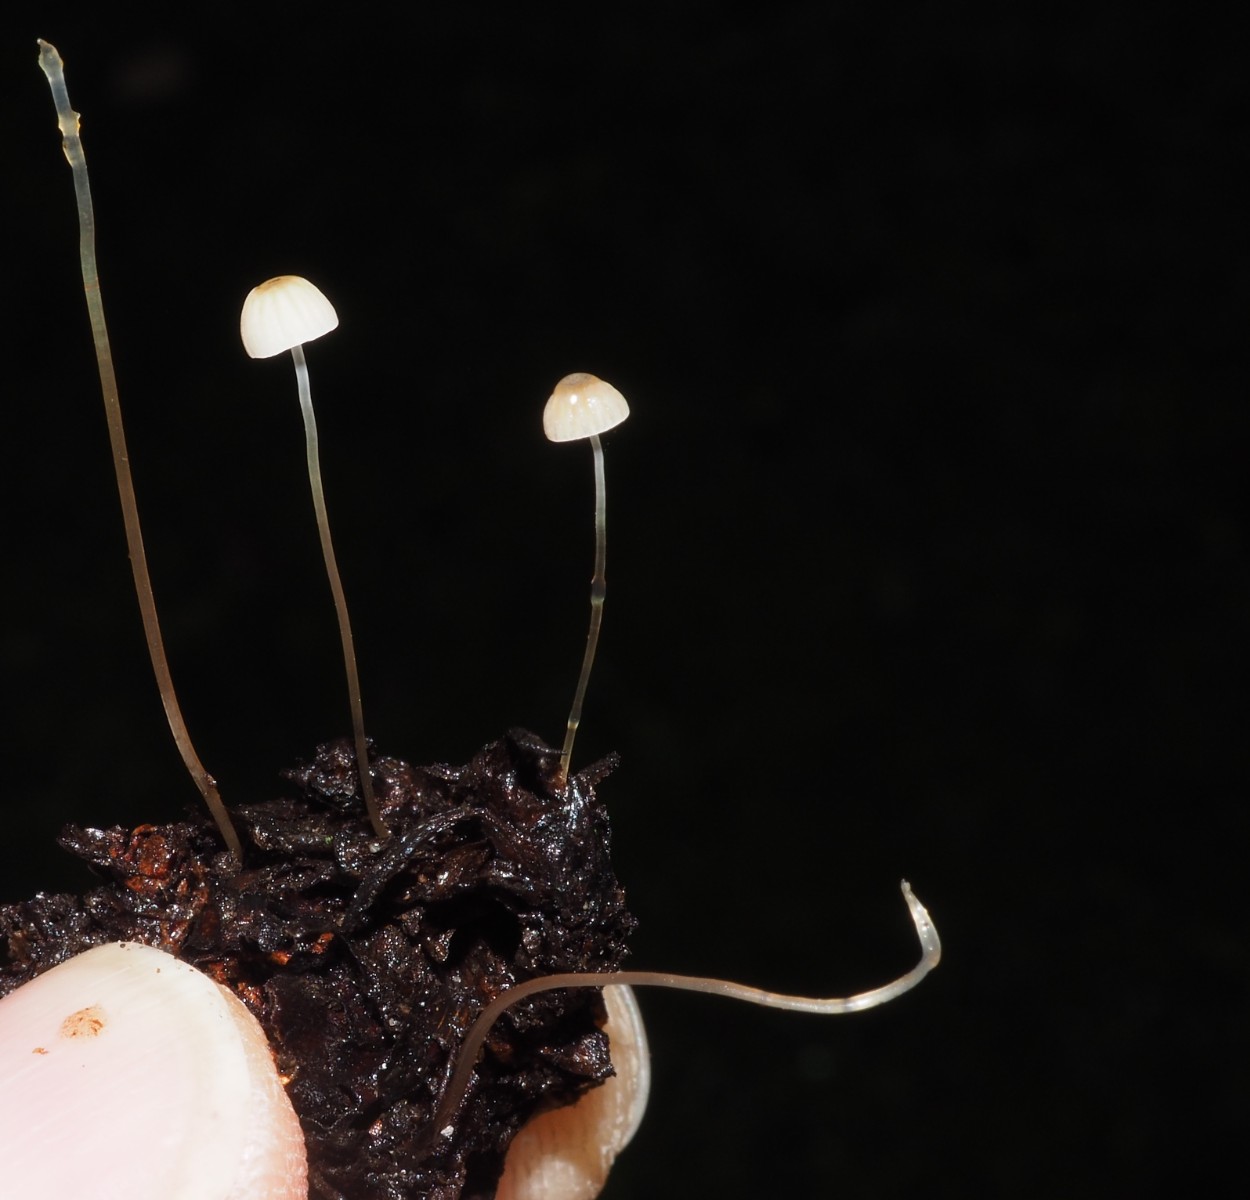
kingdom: Fungi
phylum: Basidiomycota
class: Agaricomycetes
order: Agaricales
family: Mycenaceae
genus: Mycena
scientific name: Mycena mirata
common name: krat-huesvamp
